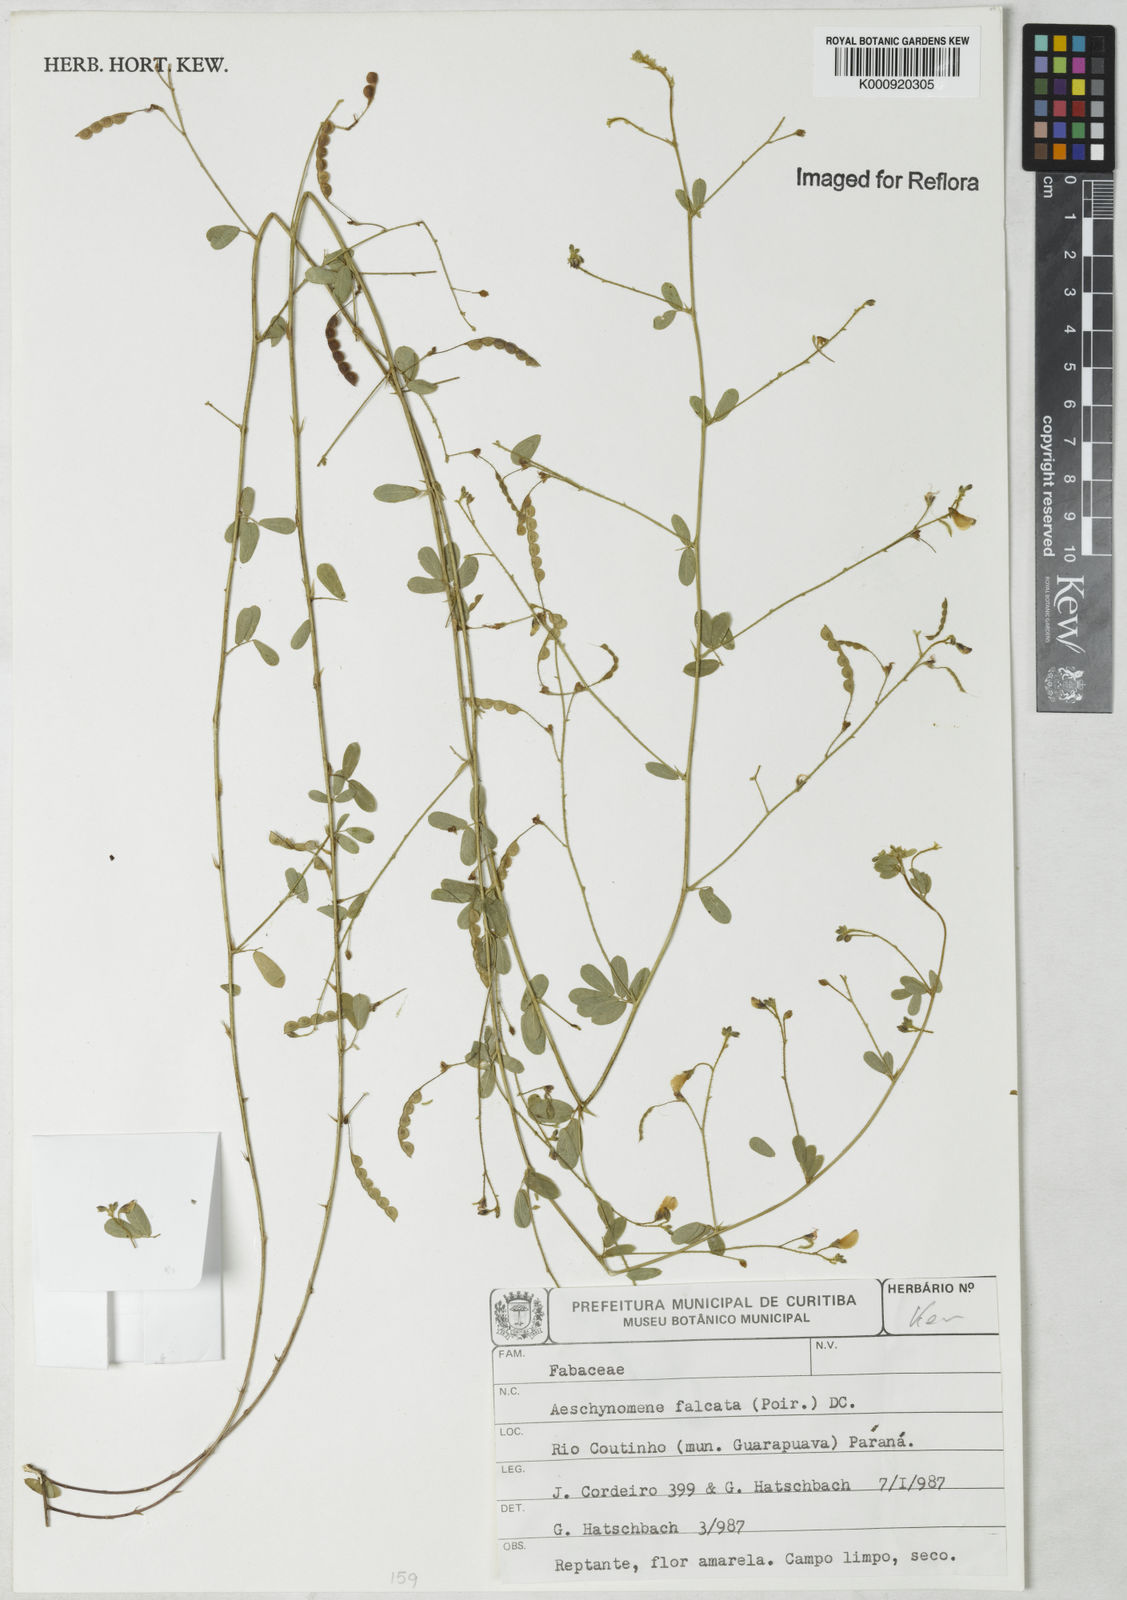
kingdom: Plantae
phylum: Tracheophyta
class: Magnoliopsida
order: Fabales
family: Fabaceae
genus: Aeschynomene
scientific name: Aeschynomene
